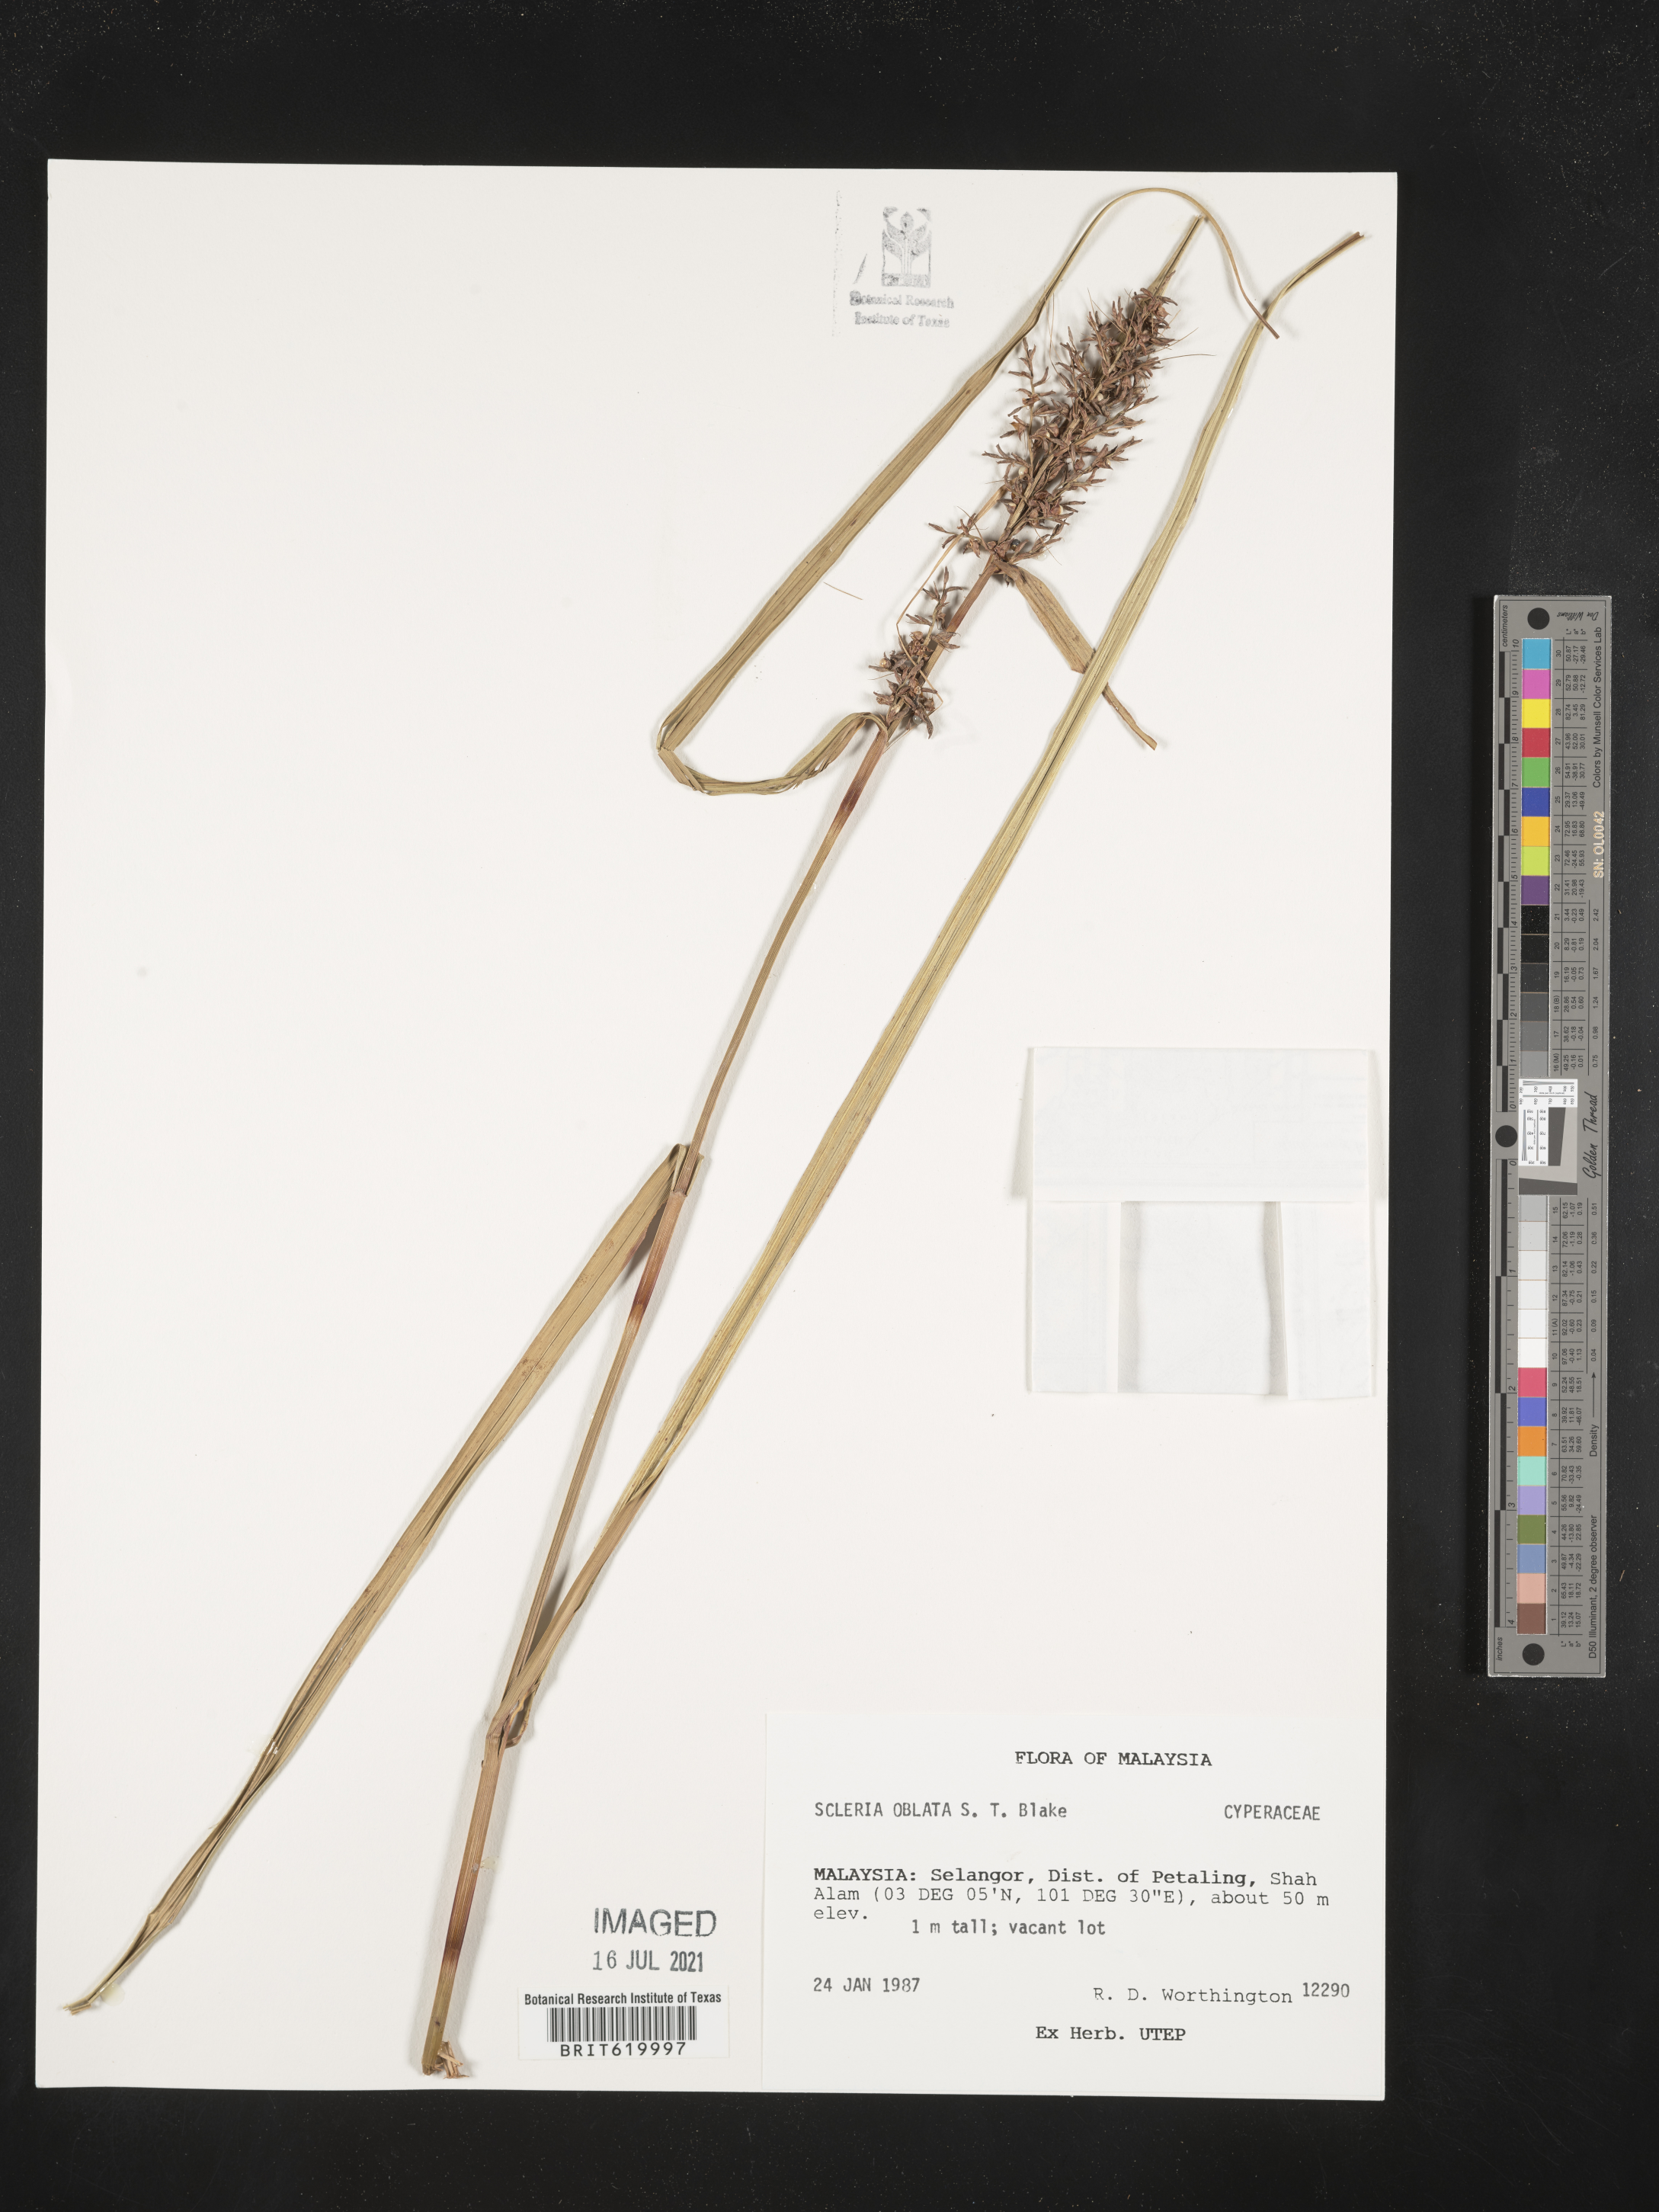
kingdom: Plantae
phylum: Tracheophyta
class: Liliopsida
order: Poales
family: Cyperaceae
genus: Scleria
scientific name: Scleria oblata
